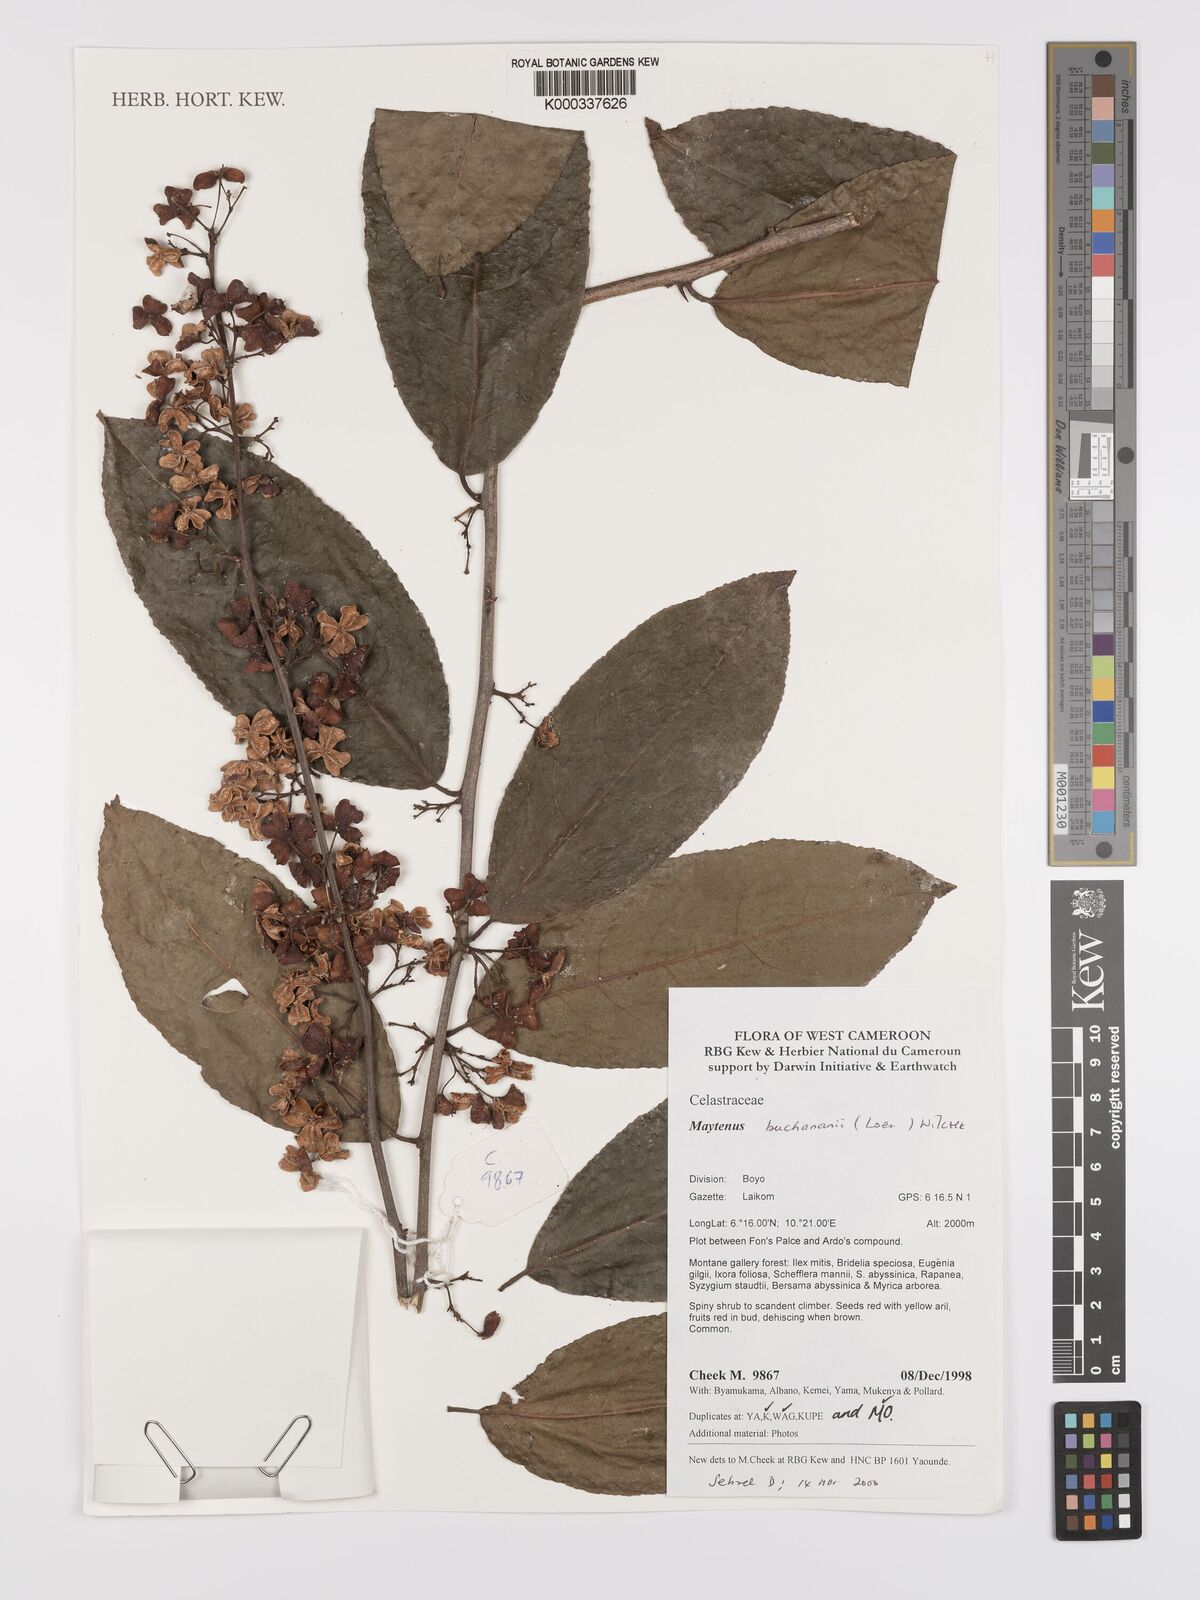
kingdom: Plantae
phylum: Tracheophyta
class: Magnoliopsida
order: Celastrales
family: Celastraceae
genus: Gymnosporia
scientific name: Gymnosporia buchananii
